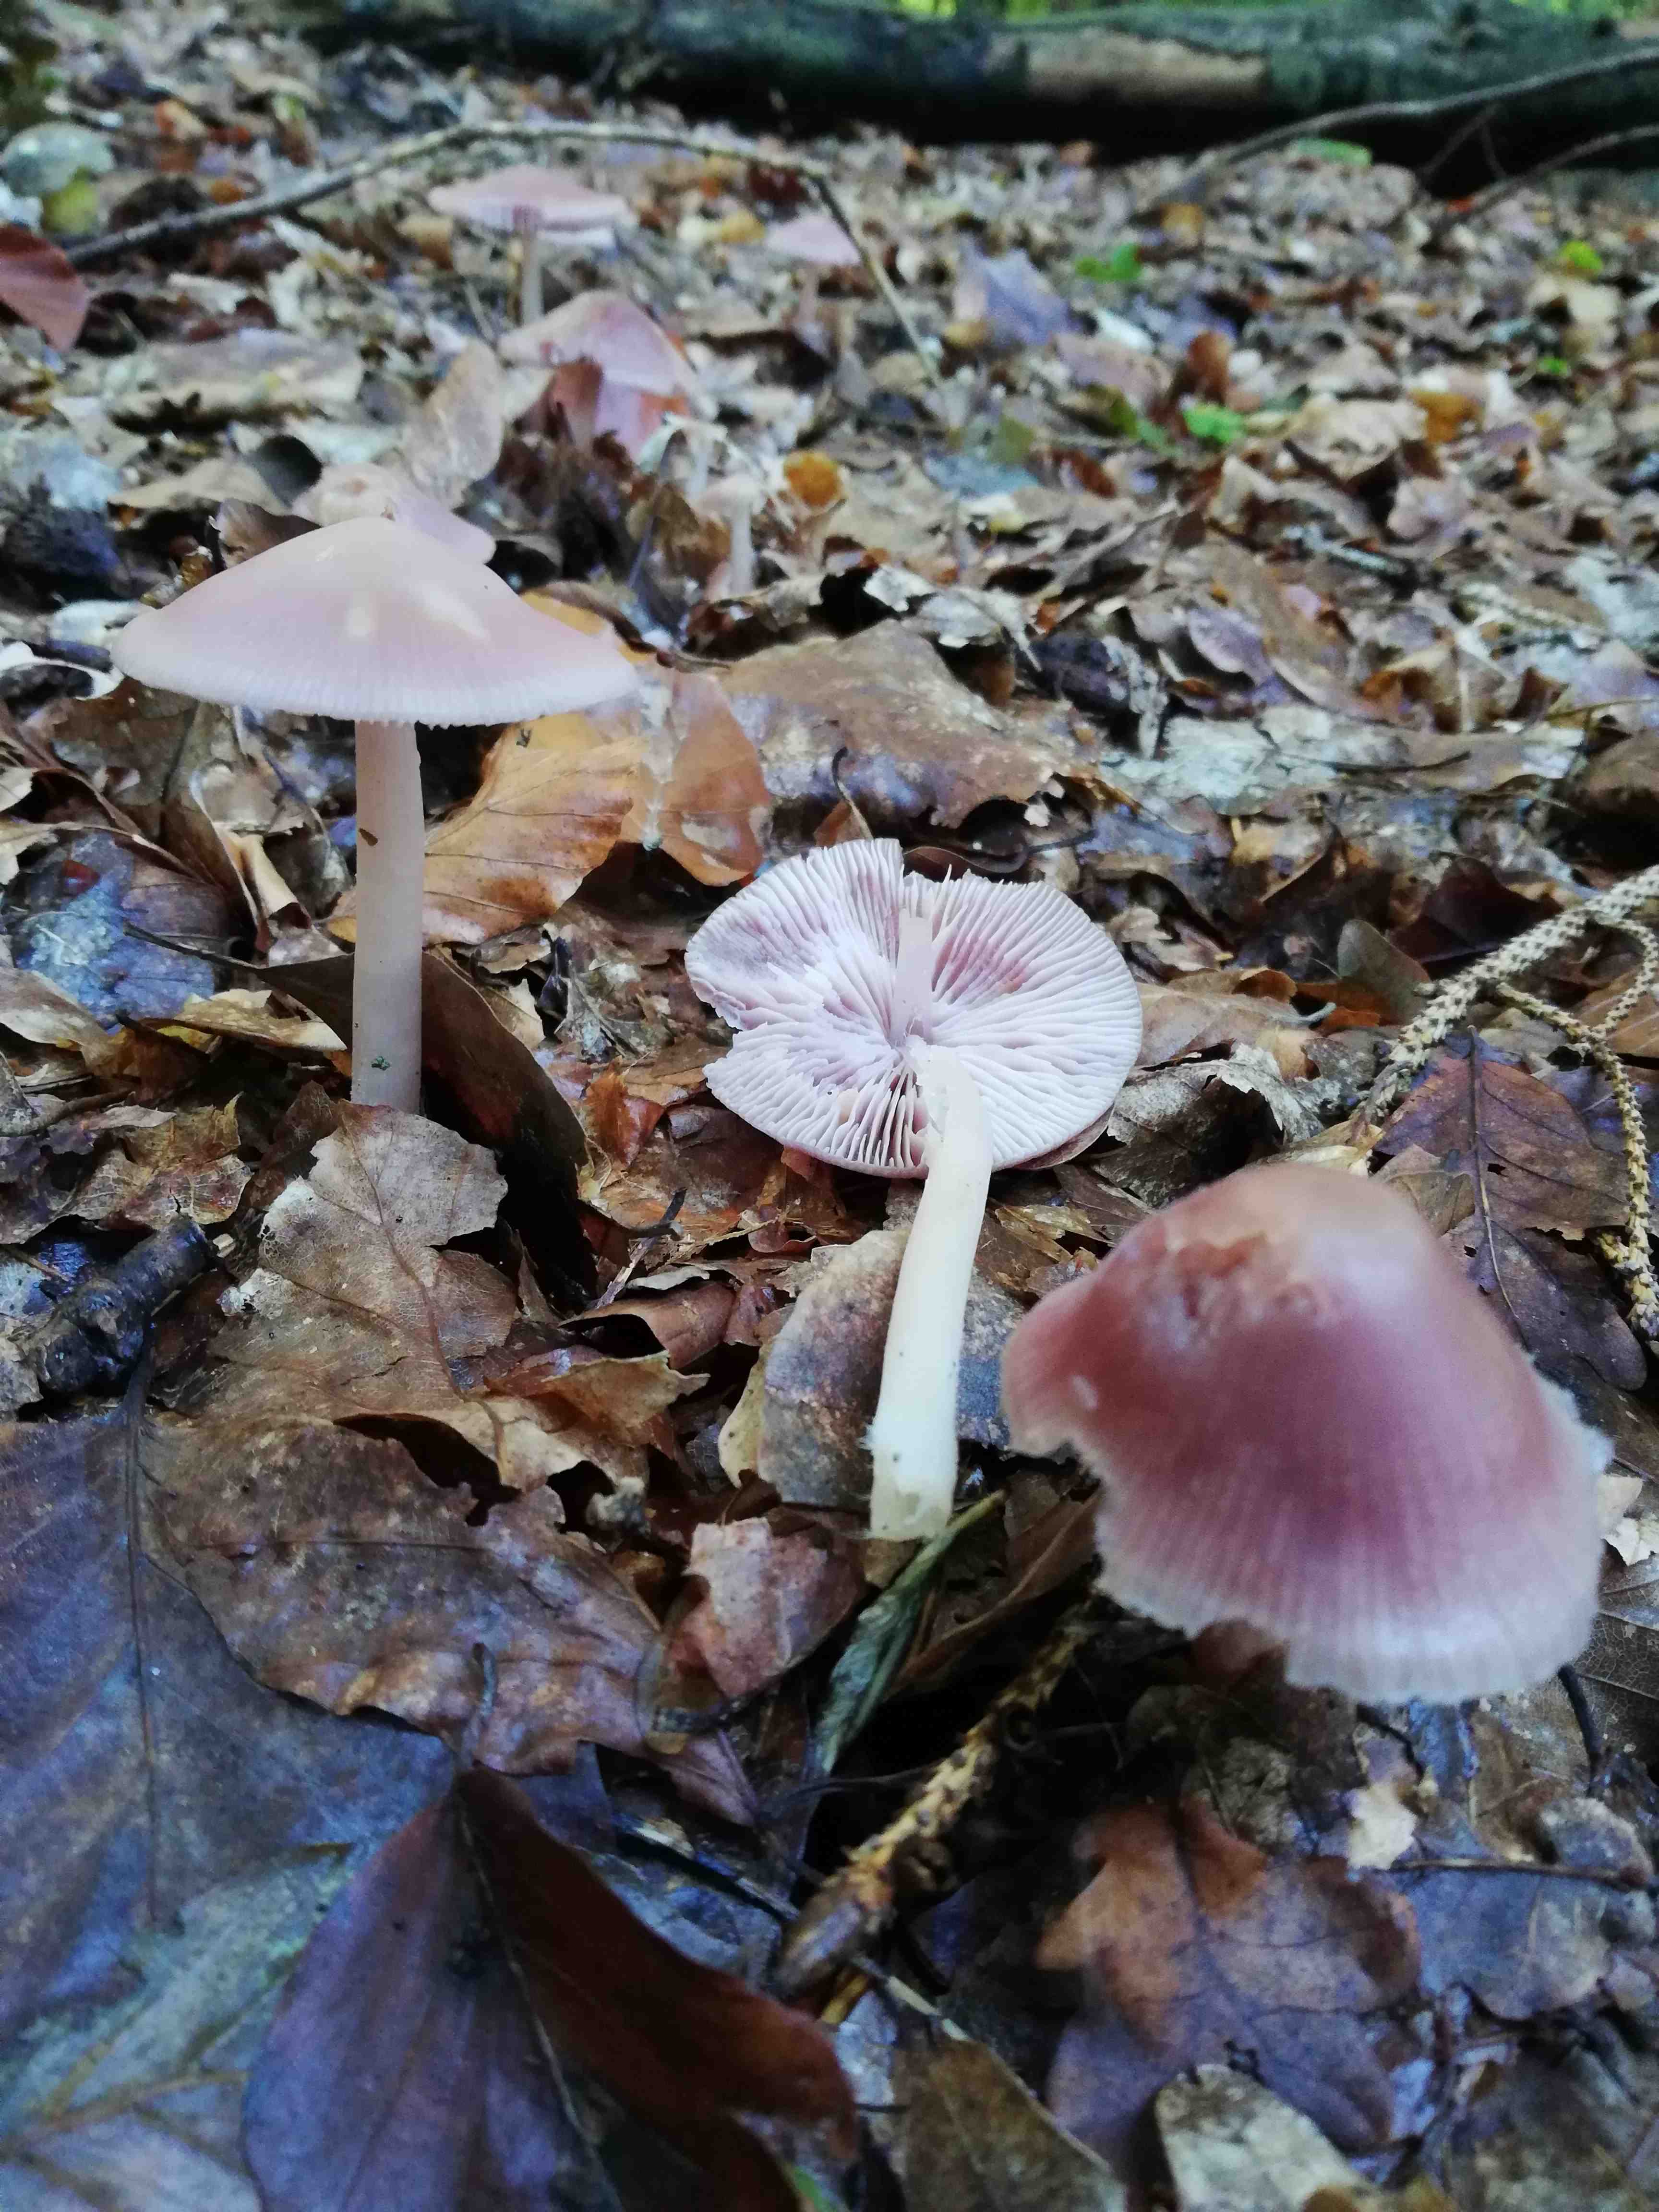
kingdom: Fungi
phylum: Basidiomycota
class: Agaricomycetes
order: Agaricales
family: Mycenaceae
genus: Mycena
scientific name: Mycena rosea
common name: rosa huesvamp
